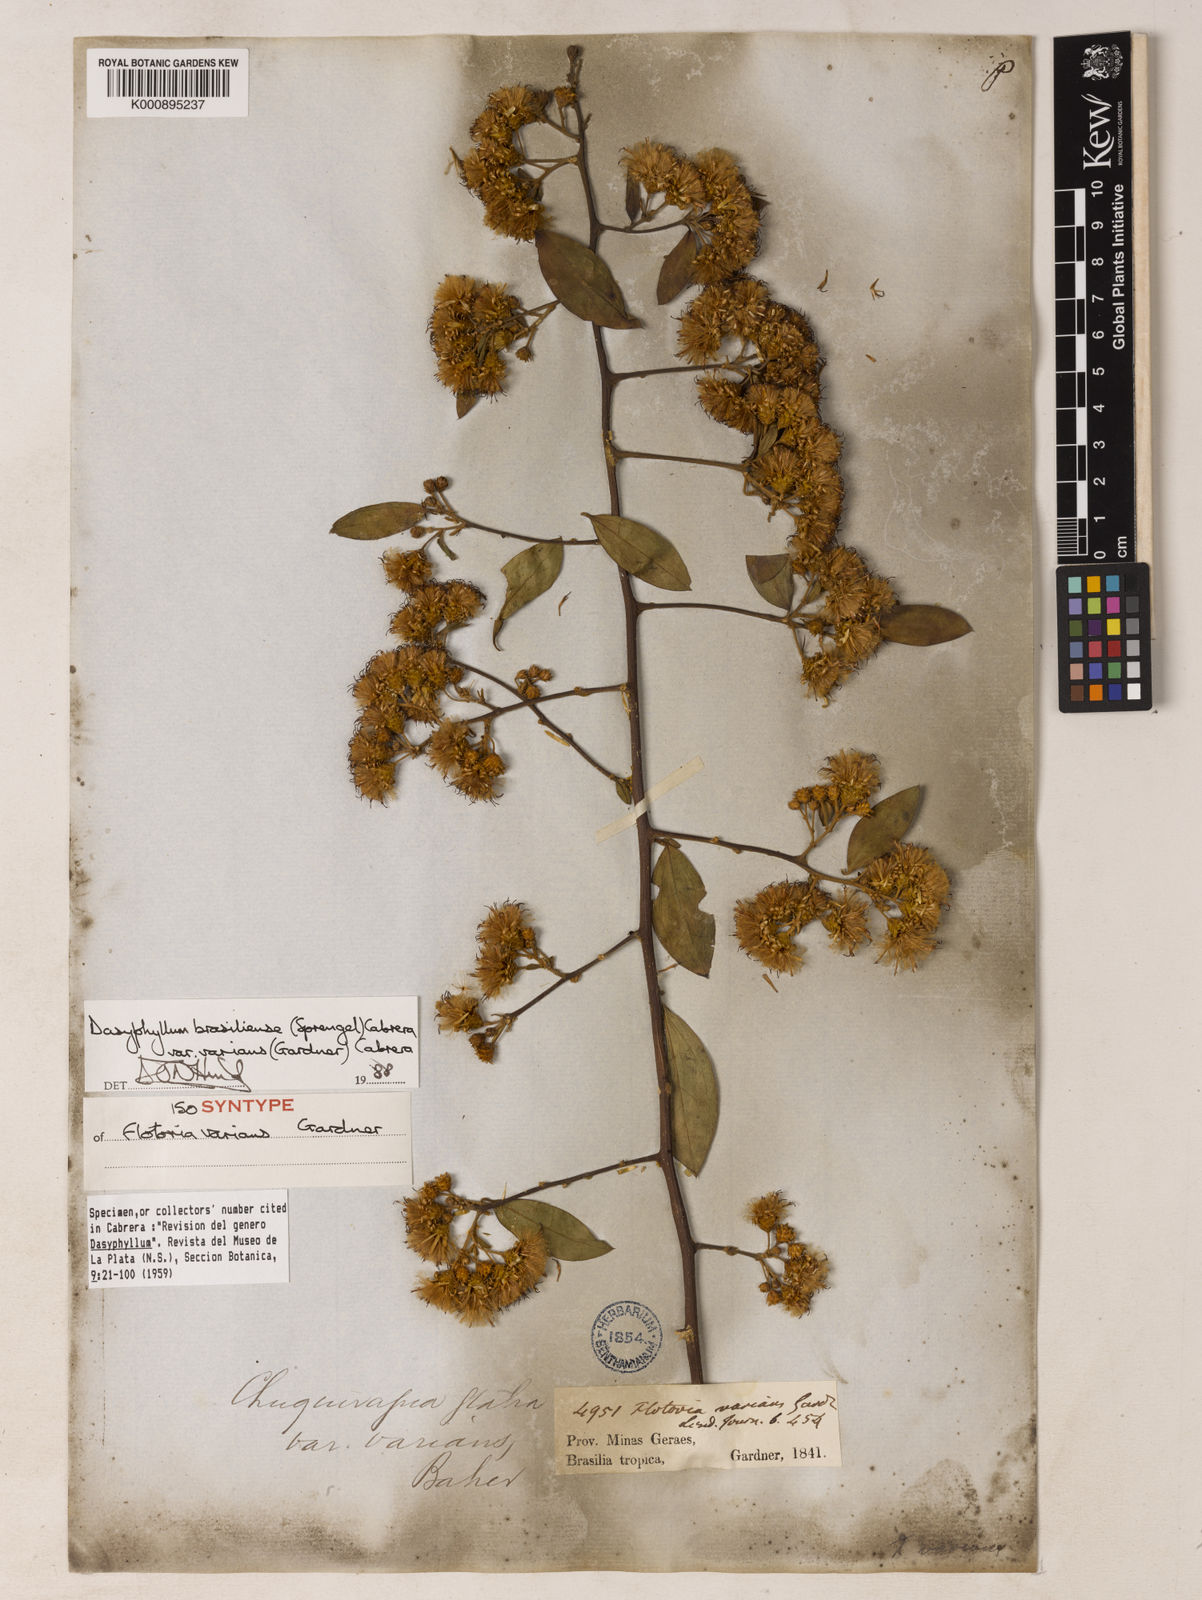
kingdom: Plantae
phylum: Tracheophyta
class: Magnoliopsida
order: Asterales
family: Asteraceae
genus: Dasyphyllum
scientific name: Dasyphyllum varians
